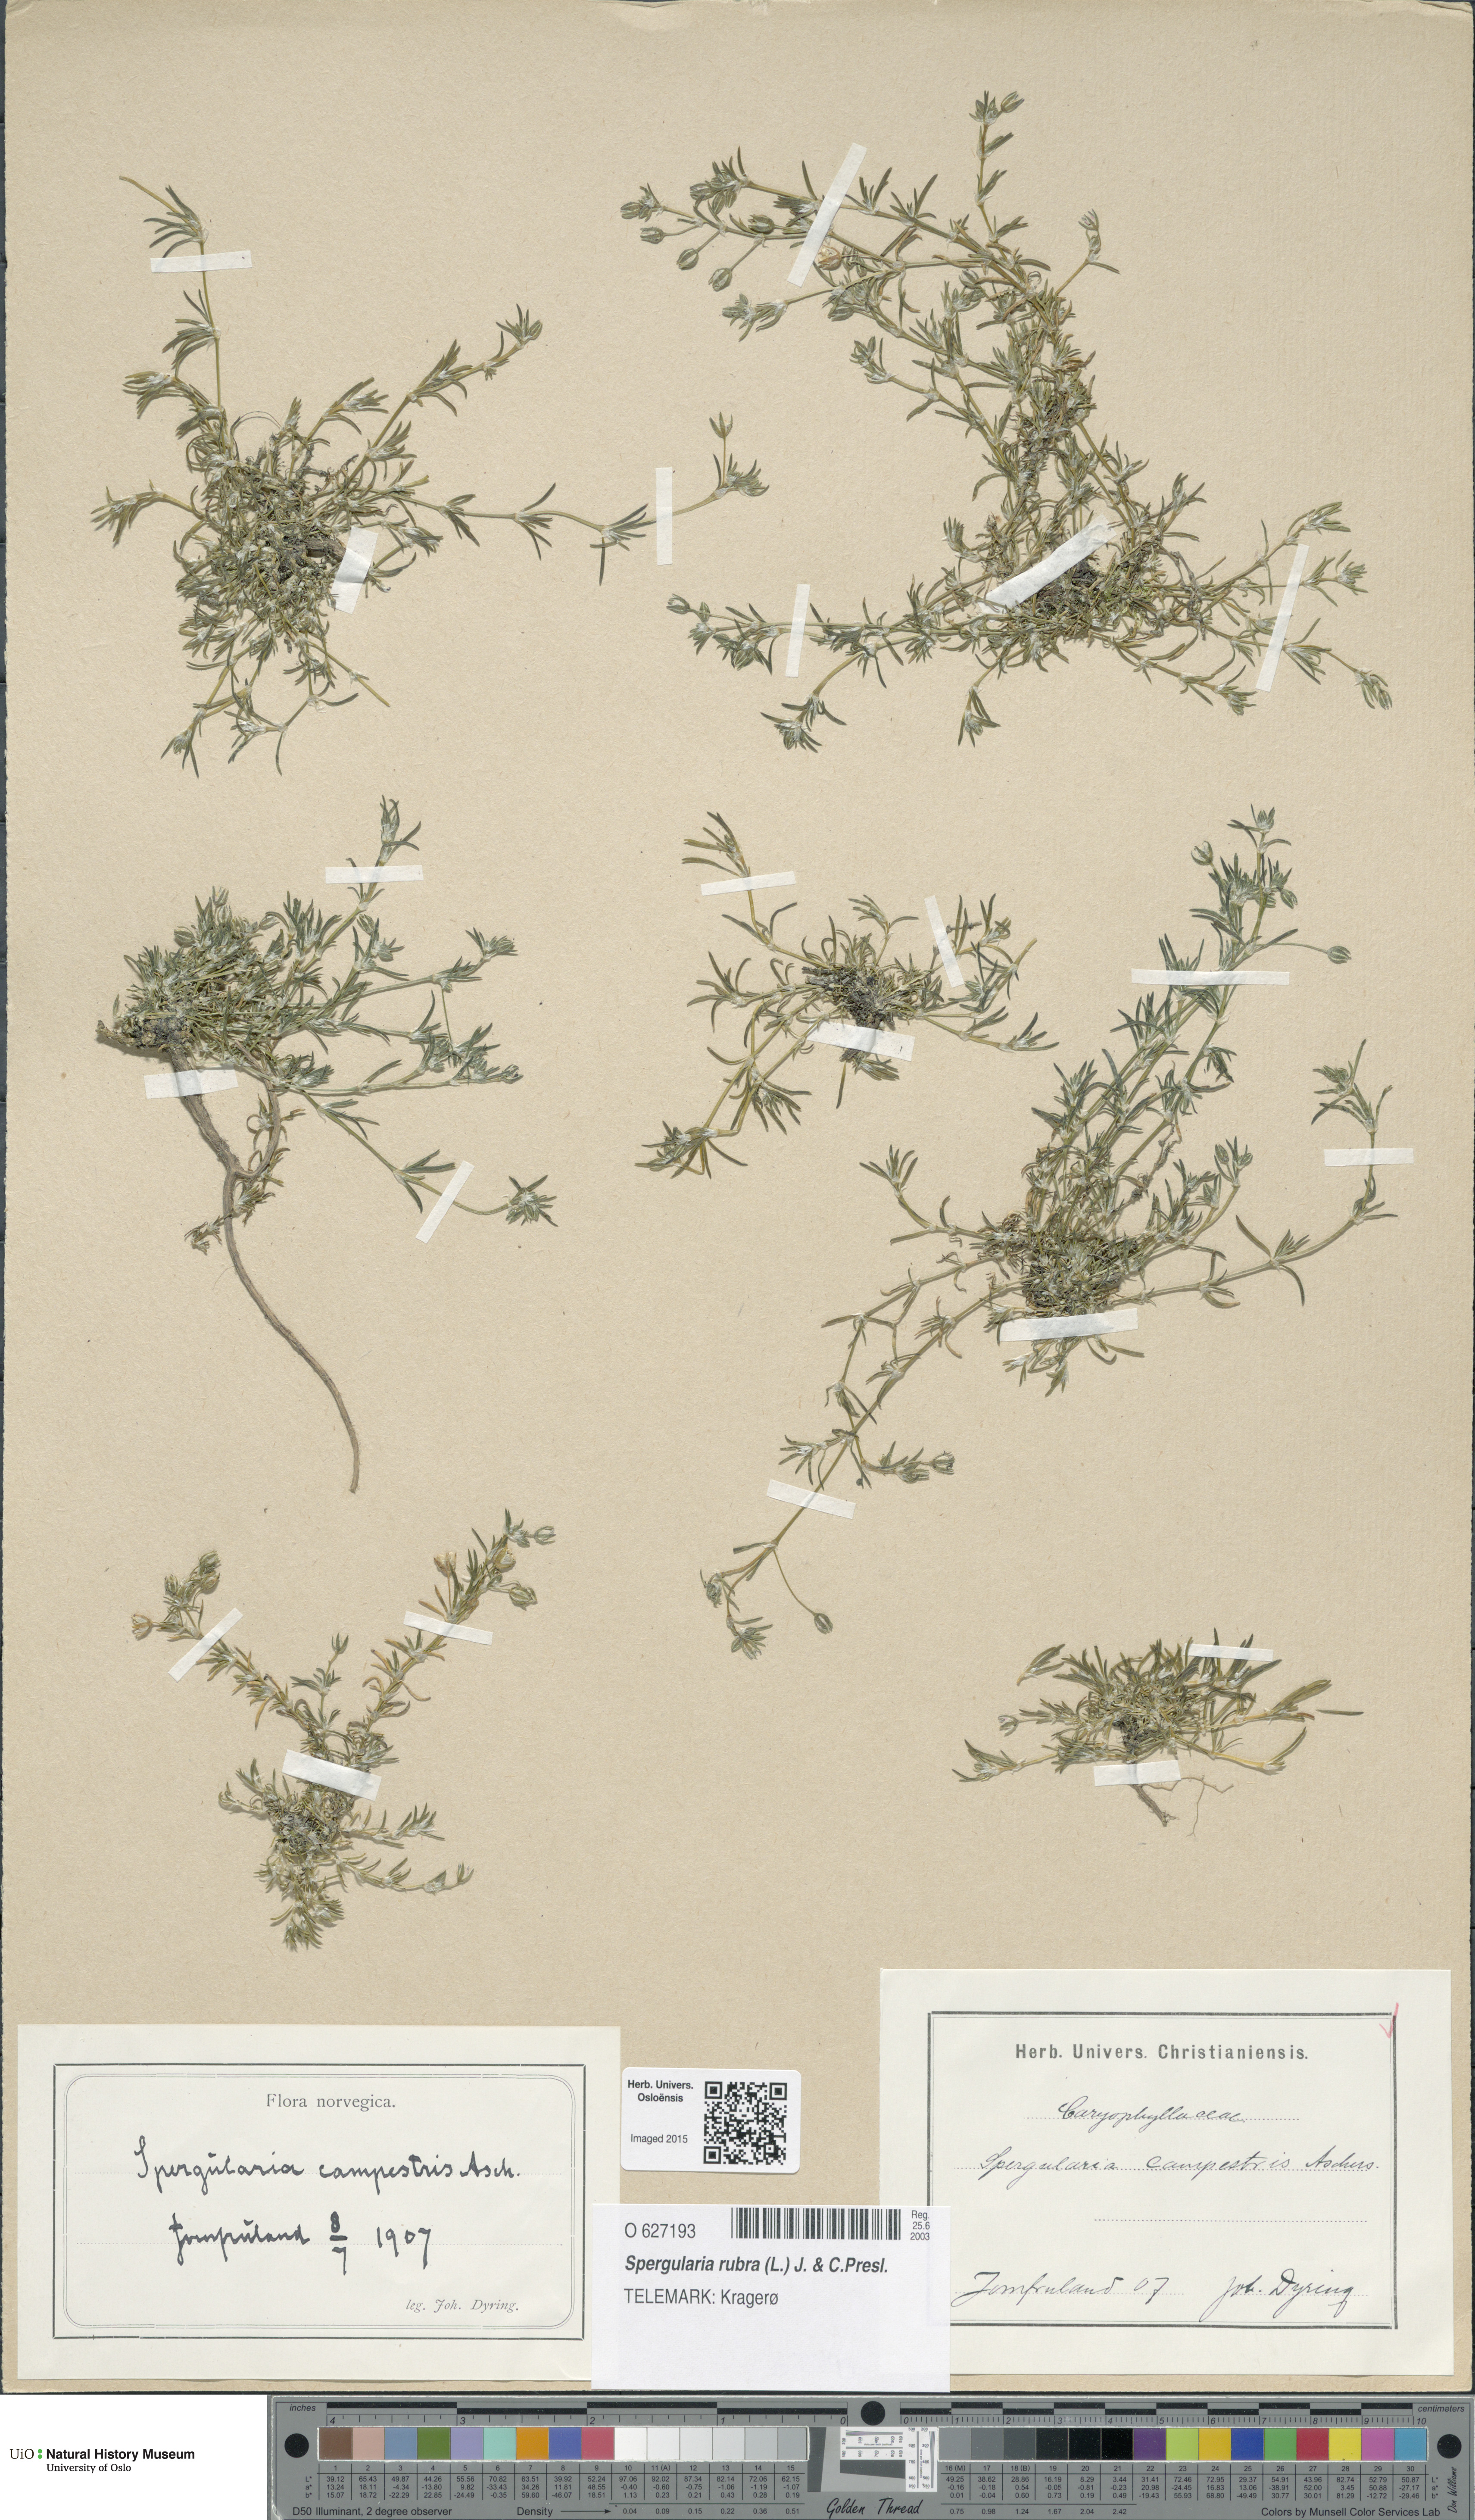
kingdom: Plantae
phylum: Tracheophyta
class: Magnoliopsida
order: Caryophyllales
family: Caryophyllaceae
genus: Spergularia
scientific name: Spergularia rubra
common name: Red sand-spurrey
